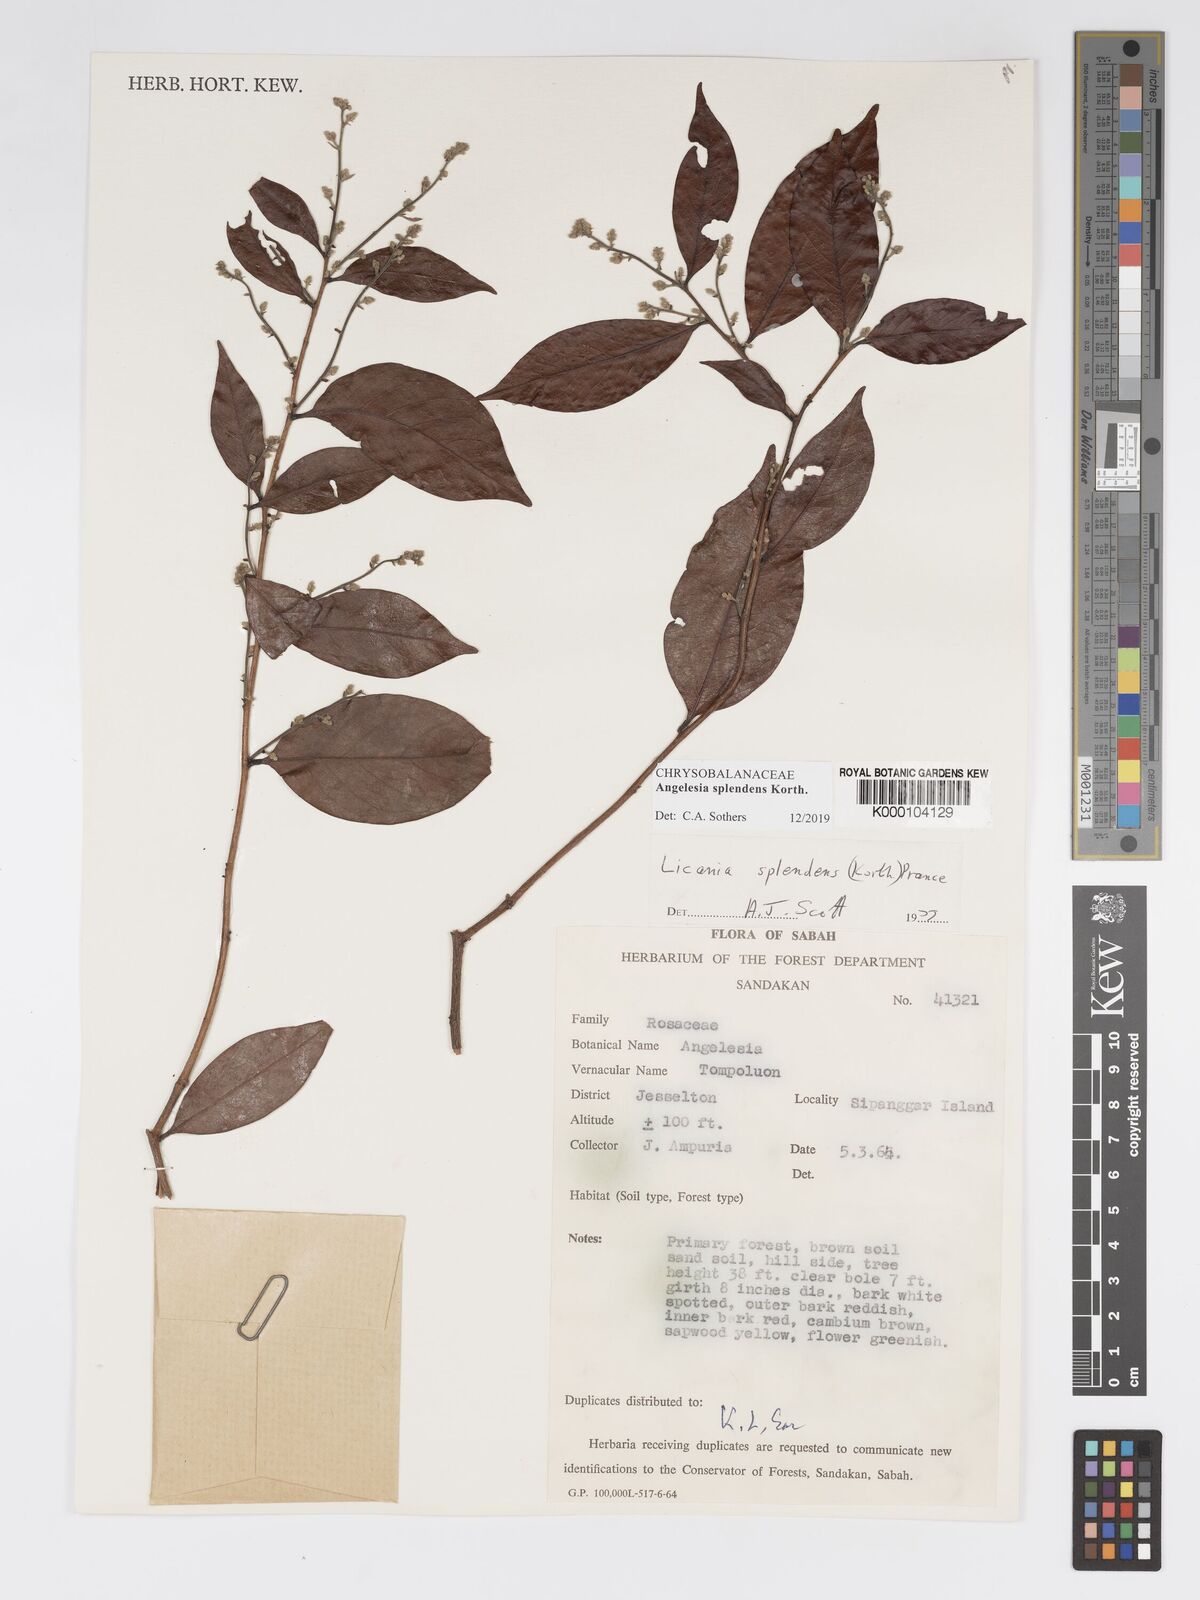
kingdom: Plantae
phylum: Tracheophyta
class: Magnoliopsida
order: Malpighiales
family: Chrysobalanaceae
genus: Angelesia
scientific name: Angelesia splendens
